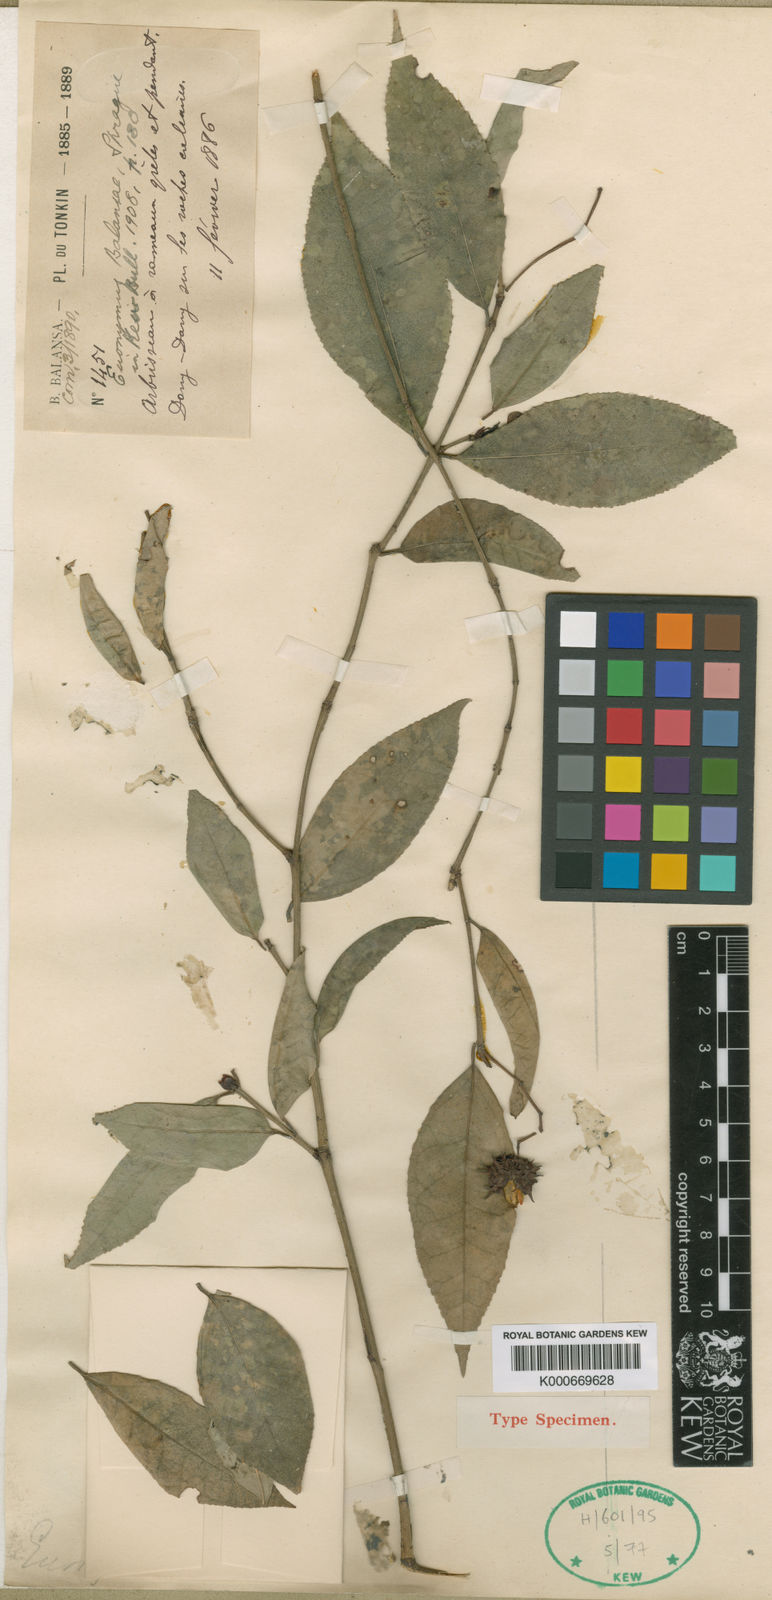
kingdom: Plantae
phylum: Tracheophyta
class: Magnoliopsida
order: Celastrales
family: Celastraceae
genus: Euonymus
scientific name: Euonymus balansae
